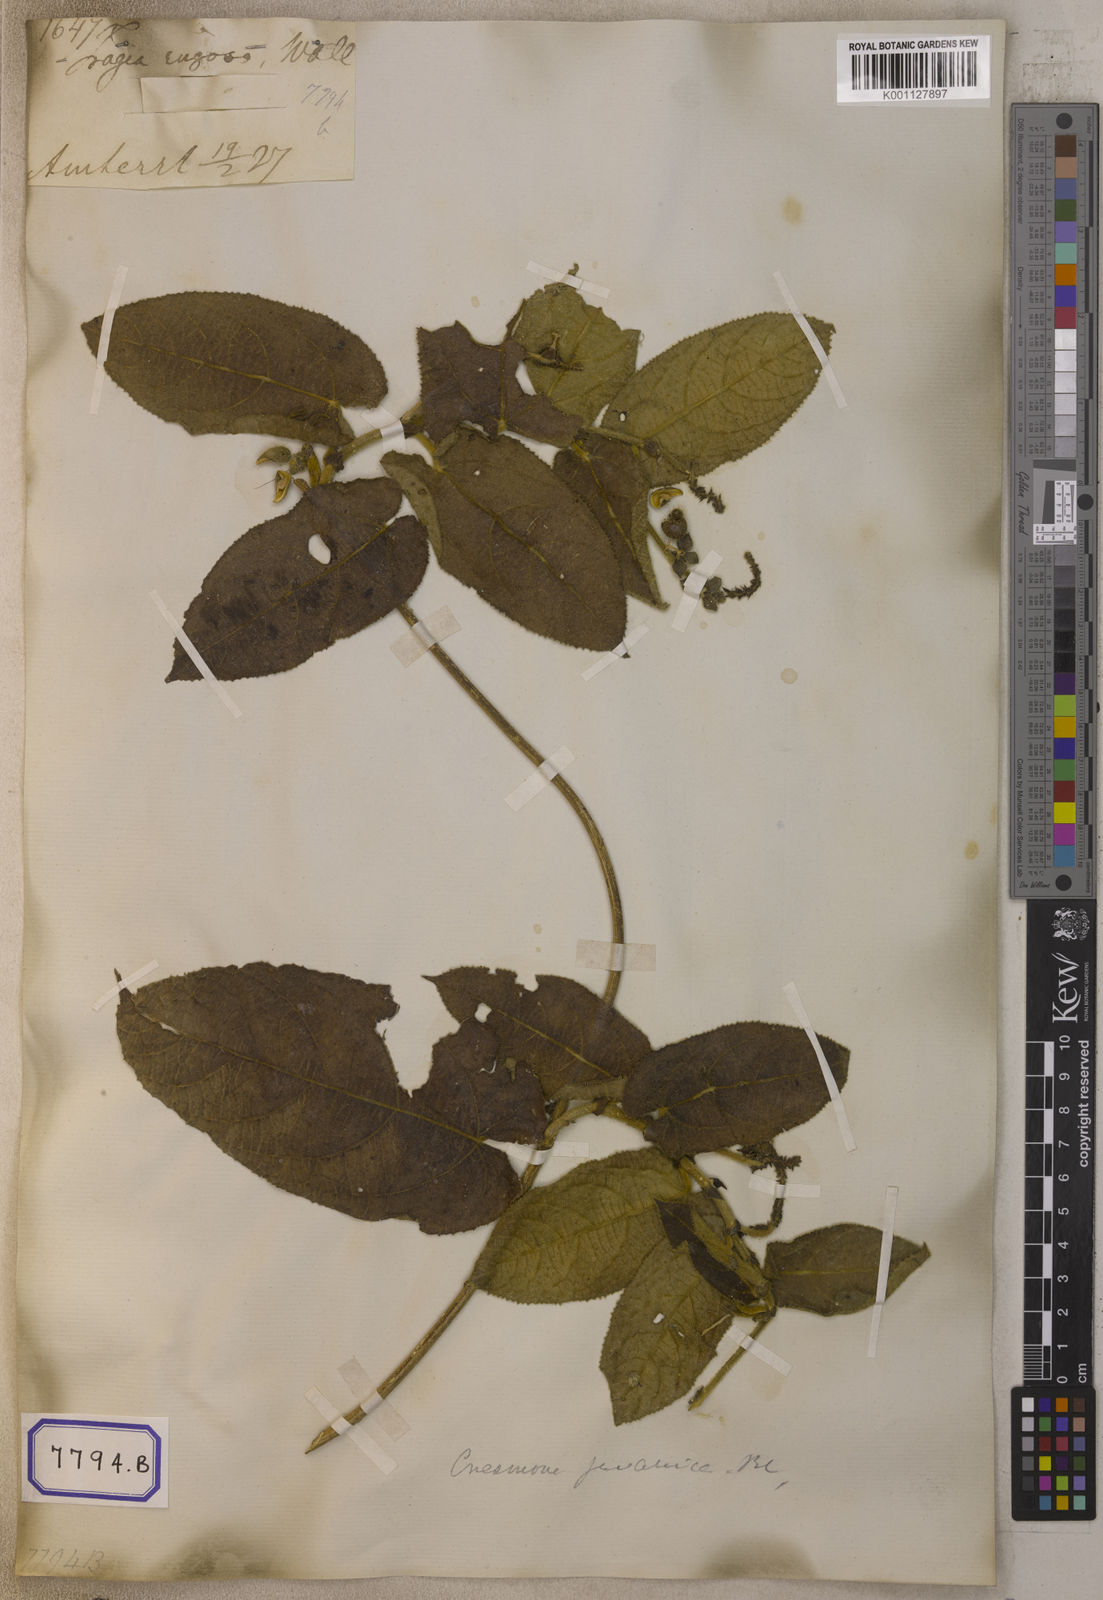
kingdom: Plantae
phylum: Tracheophyta
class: Magnoliopsida
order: Malpighiales
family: Euphorbiaceae
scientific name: Euphorbiaceae
